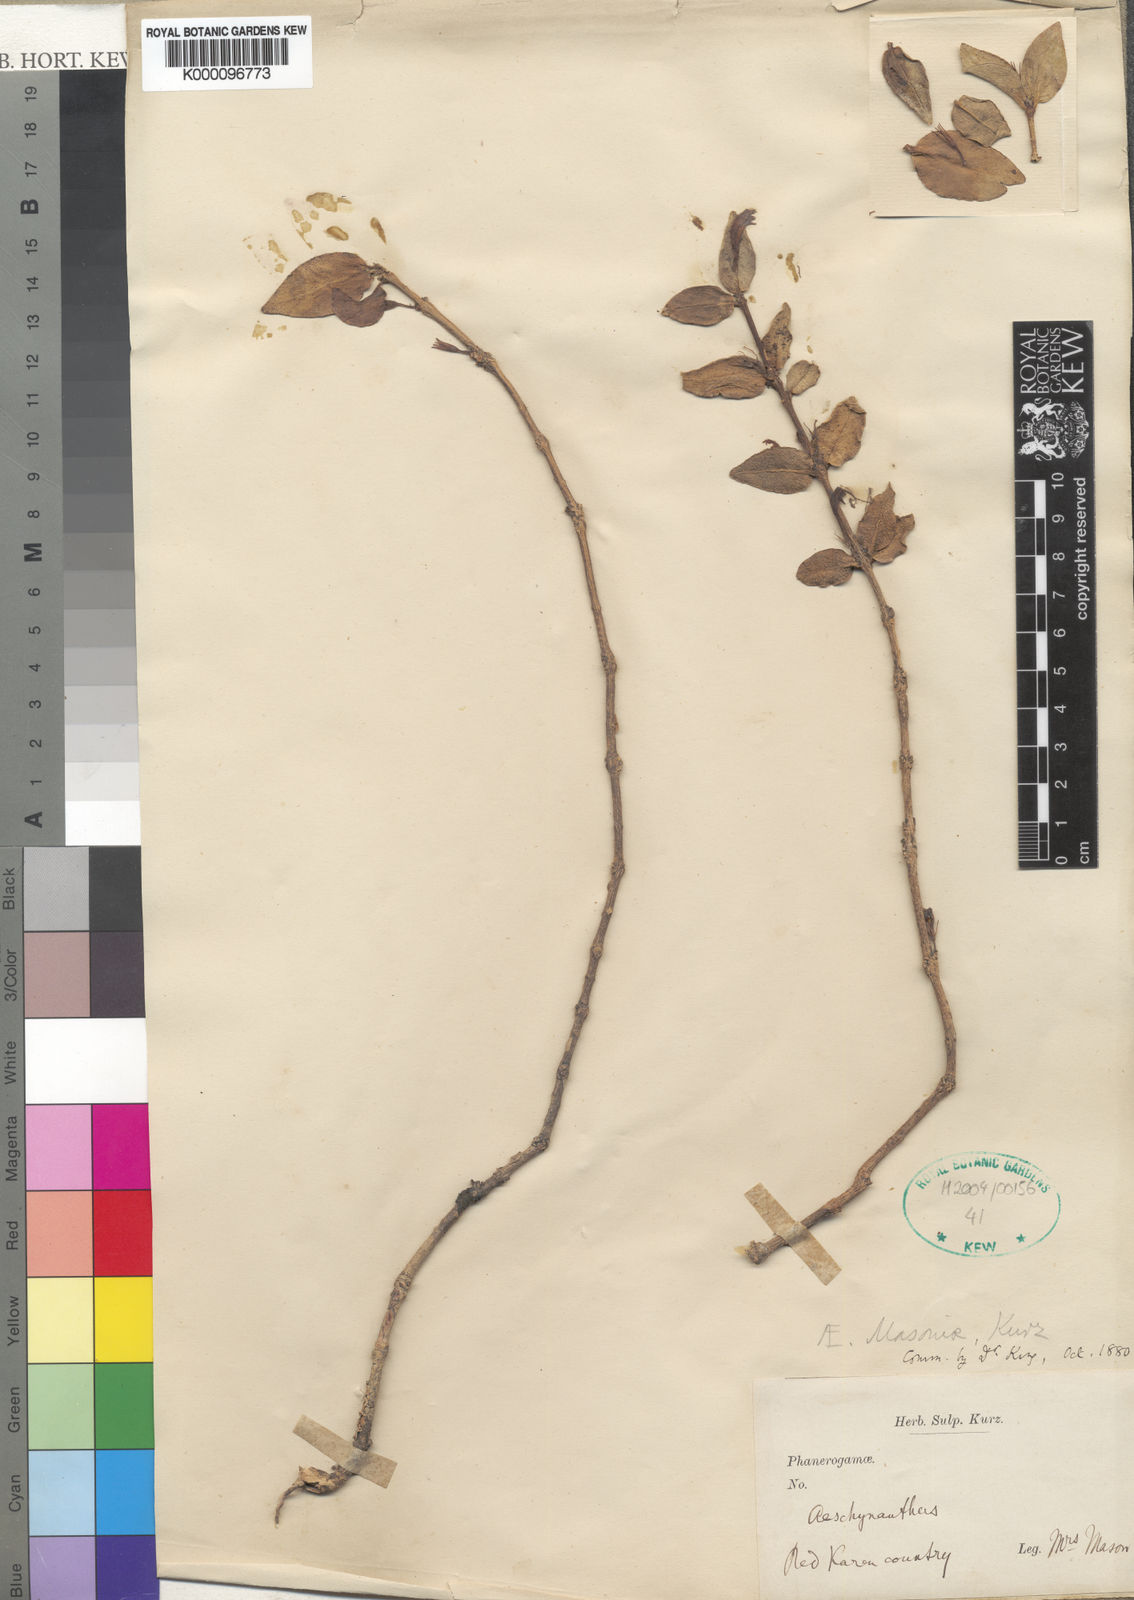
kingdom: Plantae
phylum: Tracheophyta
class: Magnoliopsida
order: Lamiales
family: Gesneriaceae
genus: Aeschynanthus
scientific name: Aeschynanthus masoniae
